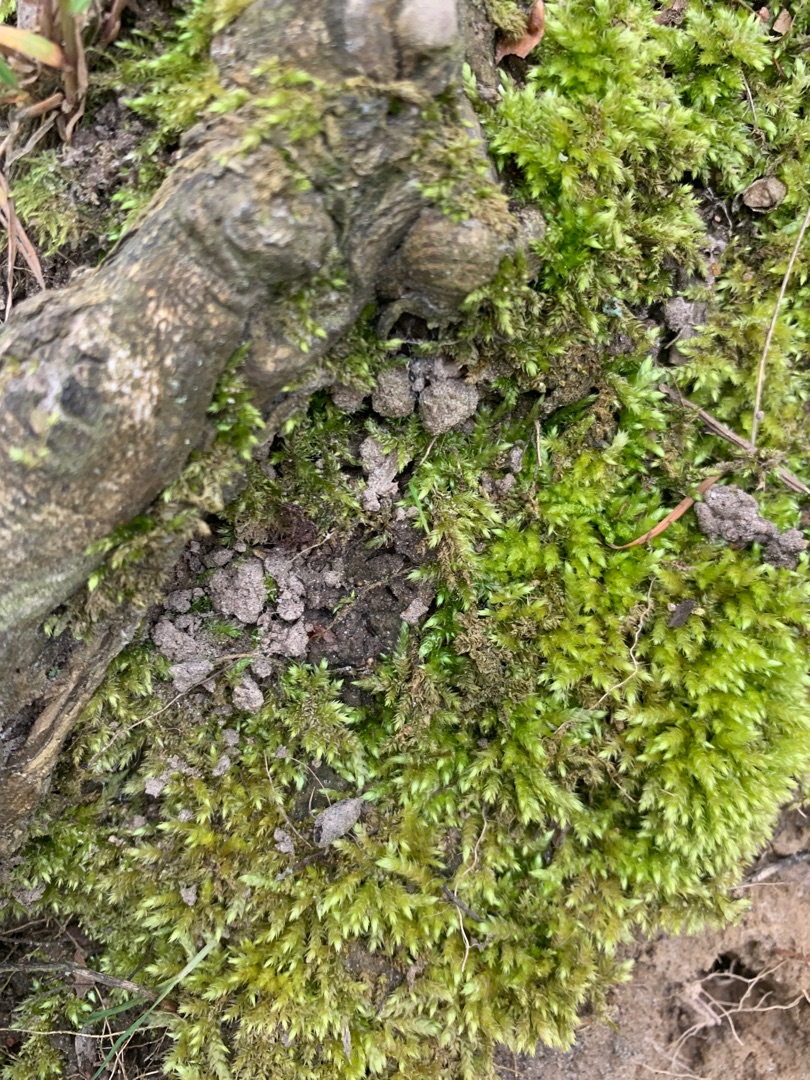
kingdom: Plantae
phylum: Bryophyta
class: Bryopsida
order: Hypnales
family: Brachytheciaceae
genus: Brachythecium
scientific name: Brachythecium rutabulum
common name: Almindelig kortkapsel
